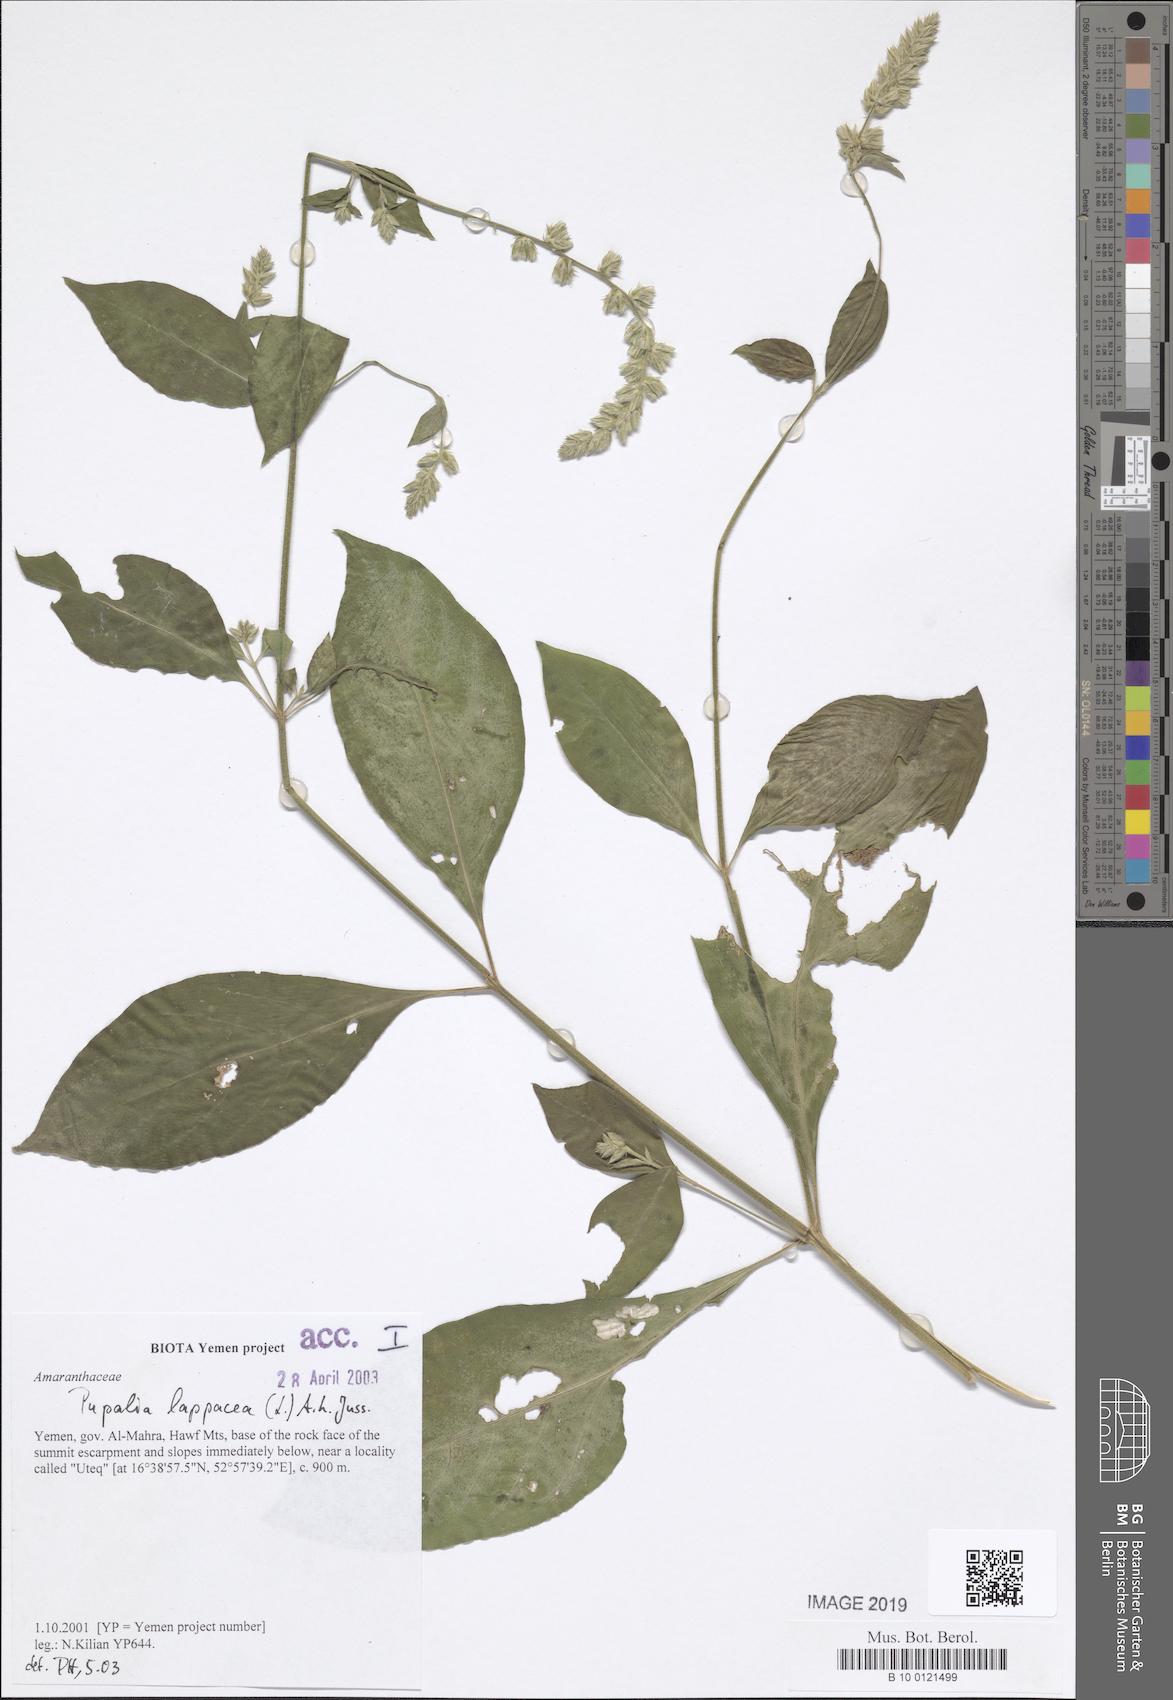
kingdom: Plantae
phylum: Tracheophyta
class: Magnoliopsida
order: Caryophyllales
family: Amaranthaceae
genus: Pupalia
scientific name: Pupalia lappacea
